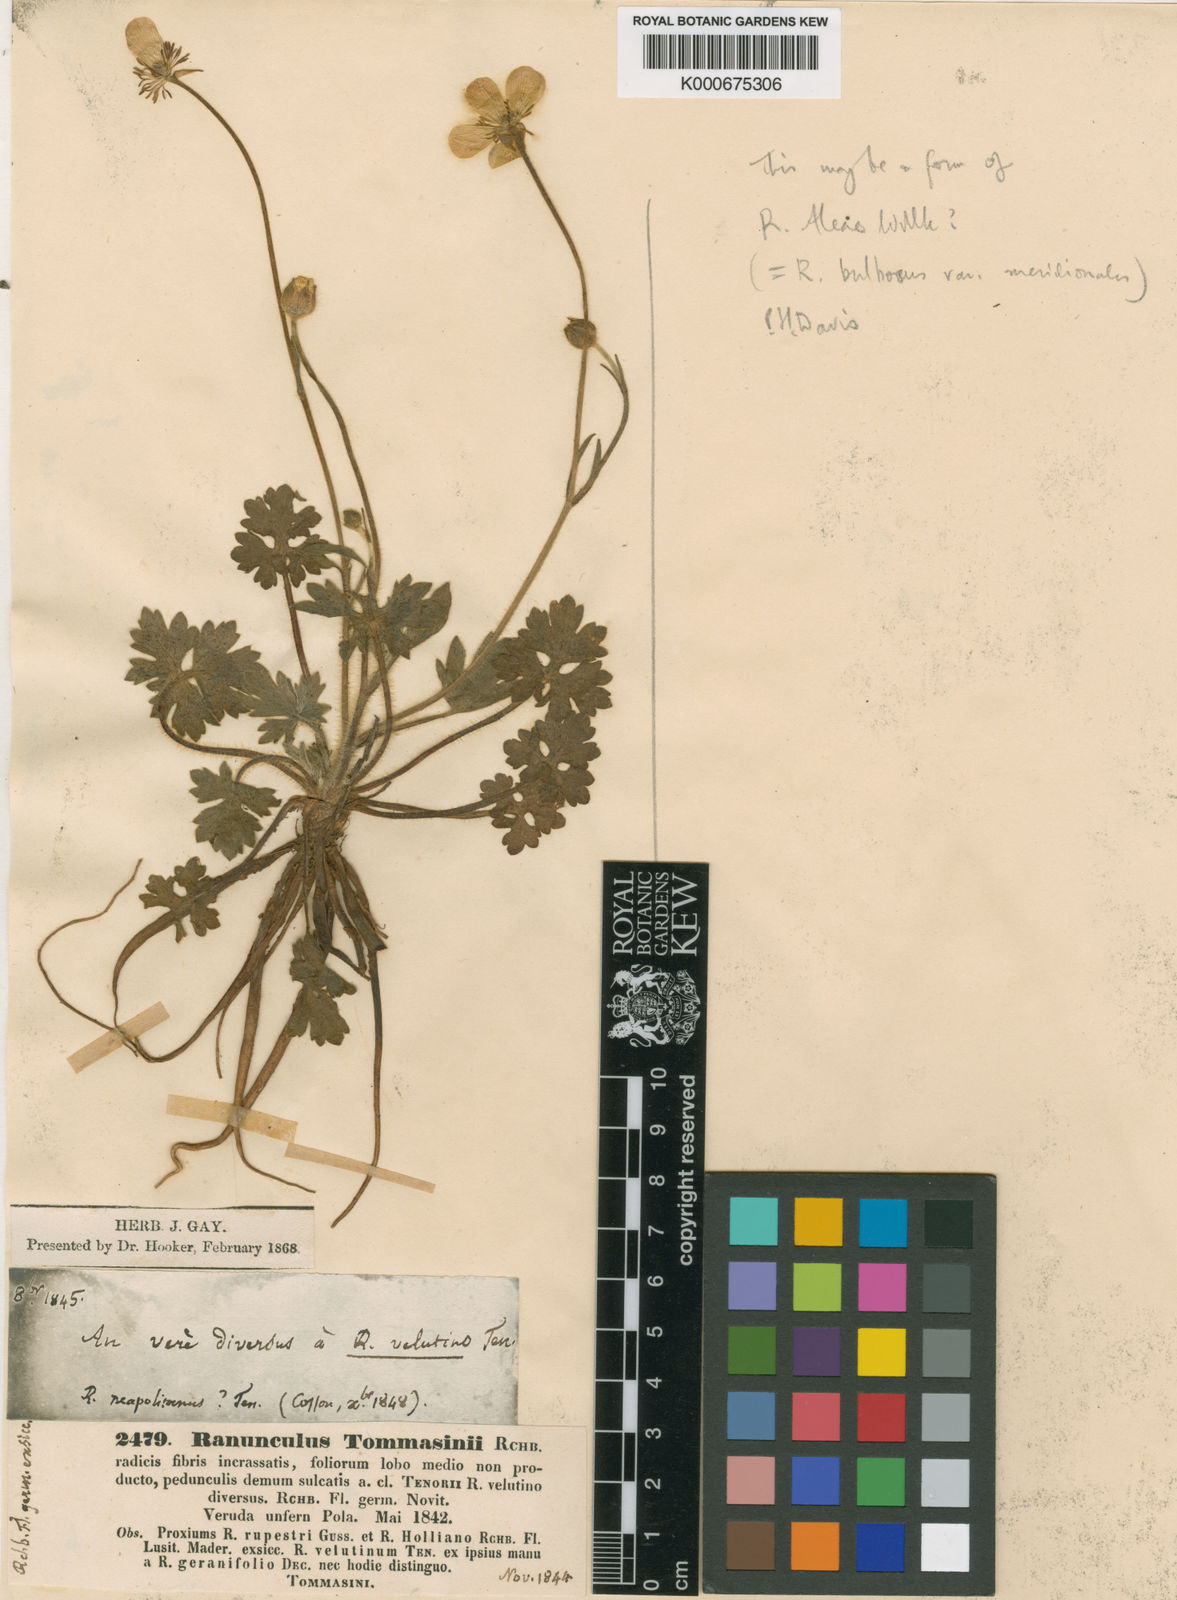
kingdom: Plantae
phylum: Tracheophyta
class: Magnoliopsida
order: Ranunculales
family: Ranunculaceae
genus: Ranunculus
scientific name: Ranunculus velutinus
